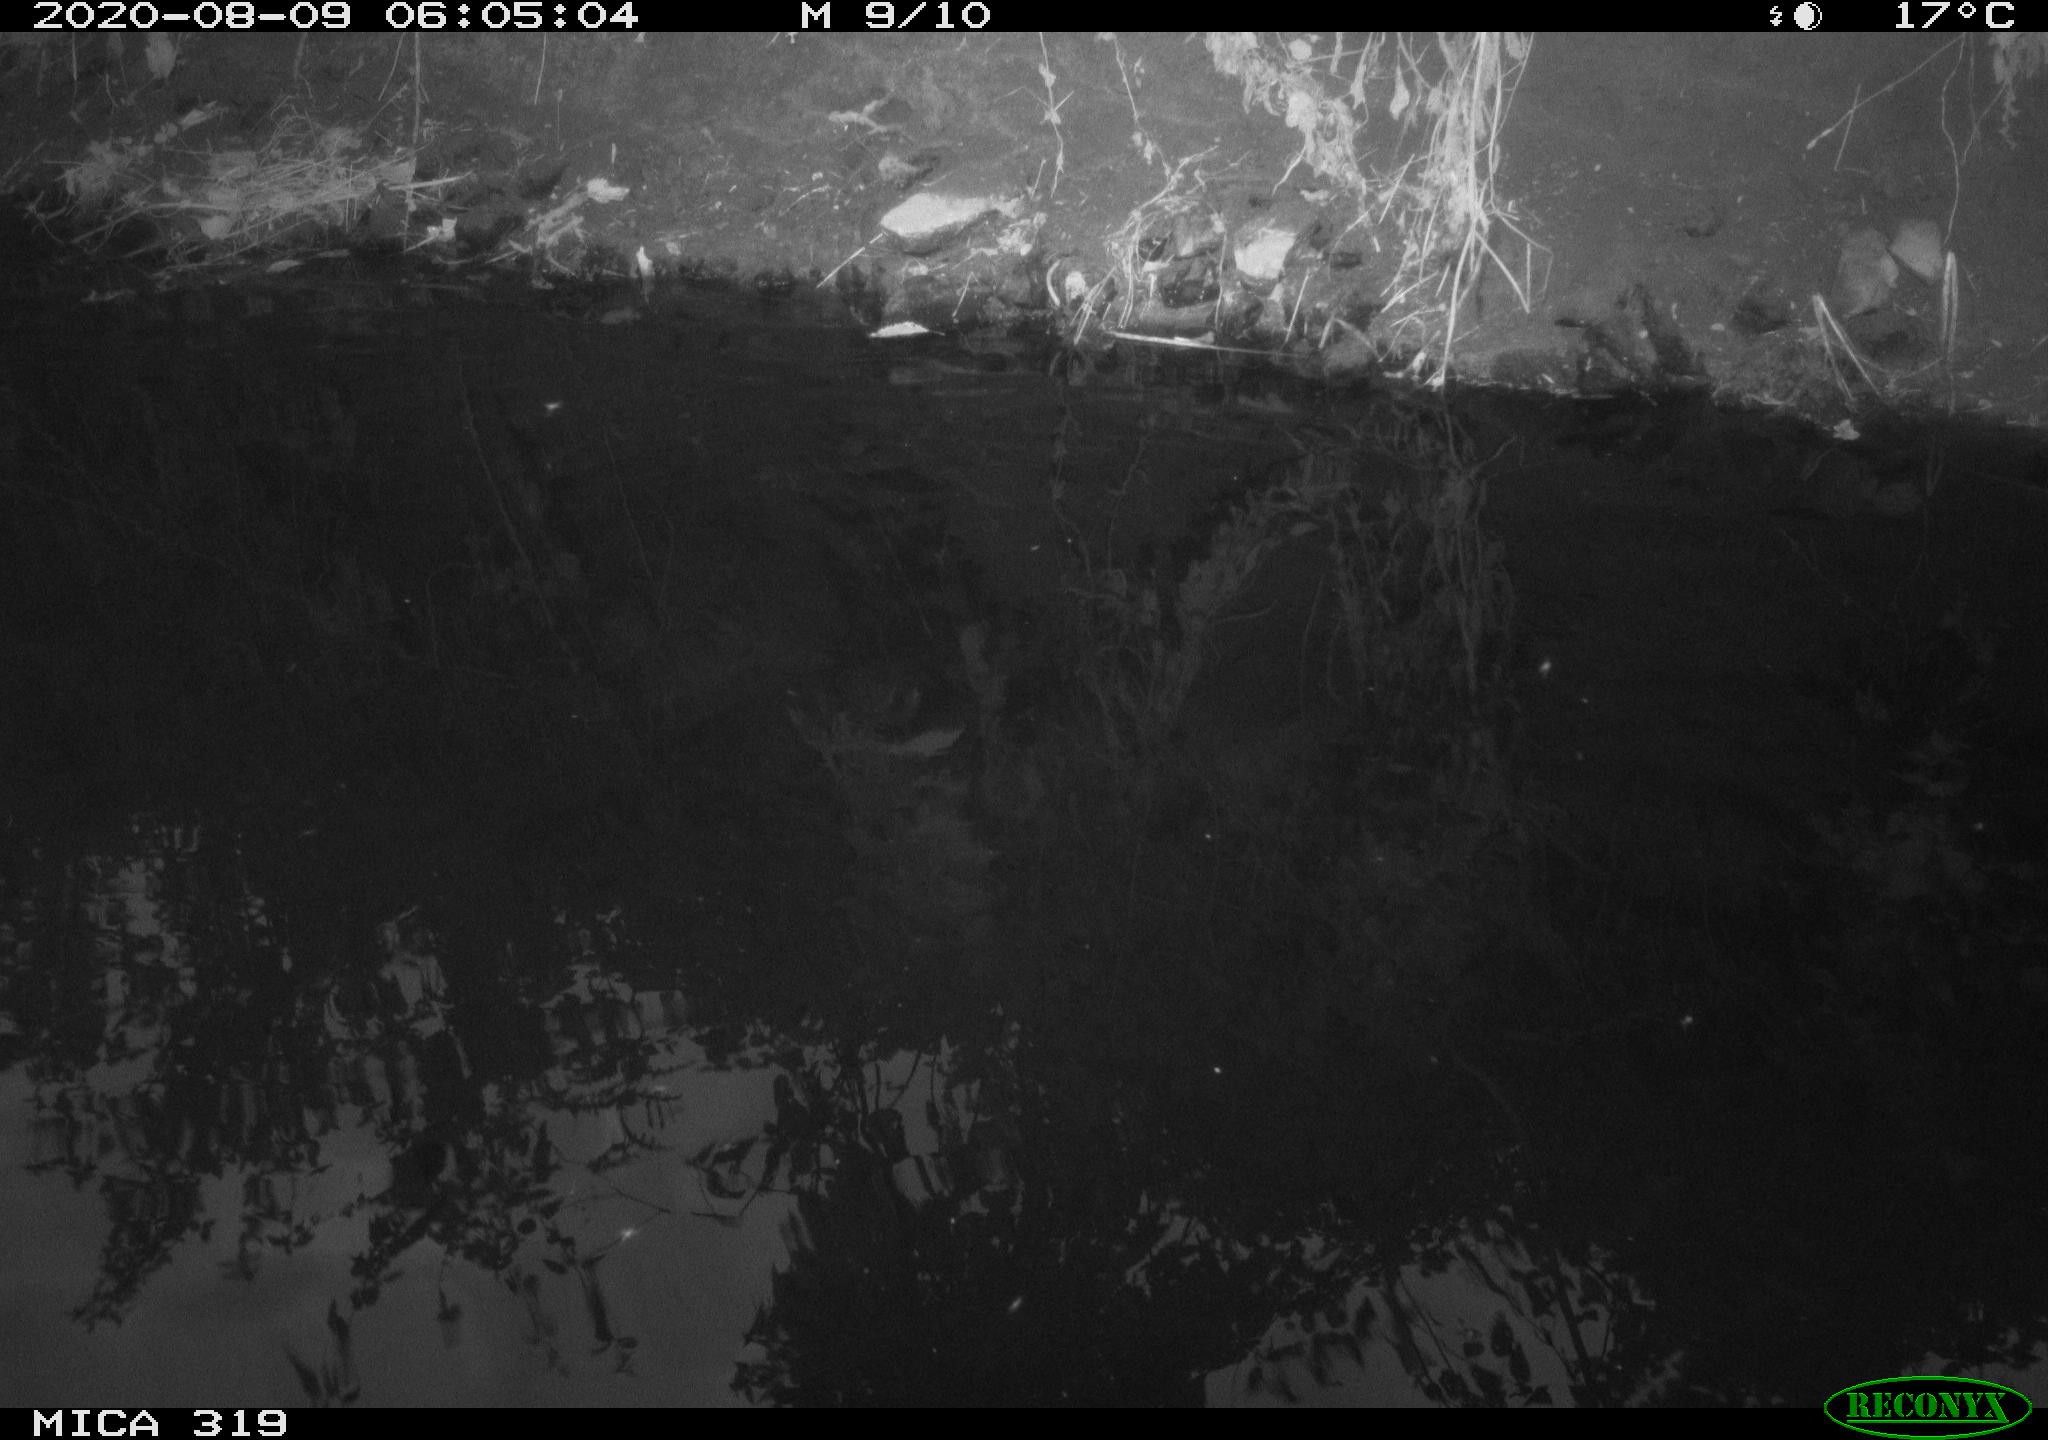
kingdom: Animalia
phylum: Chordata
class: Aves
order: Anseriformes
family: Anatidae
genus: Anas
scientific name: Anas platyrhynchos
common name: Mallard
